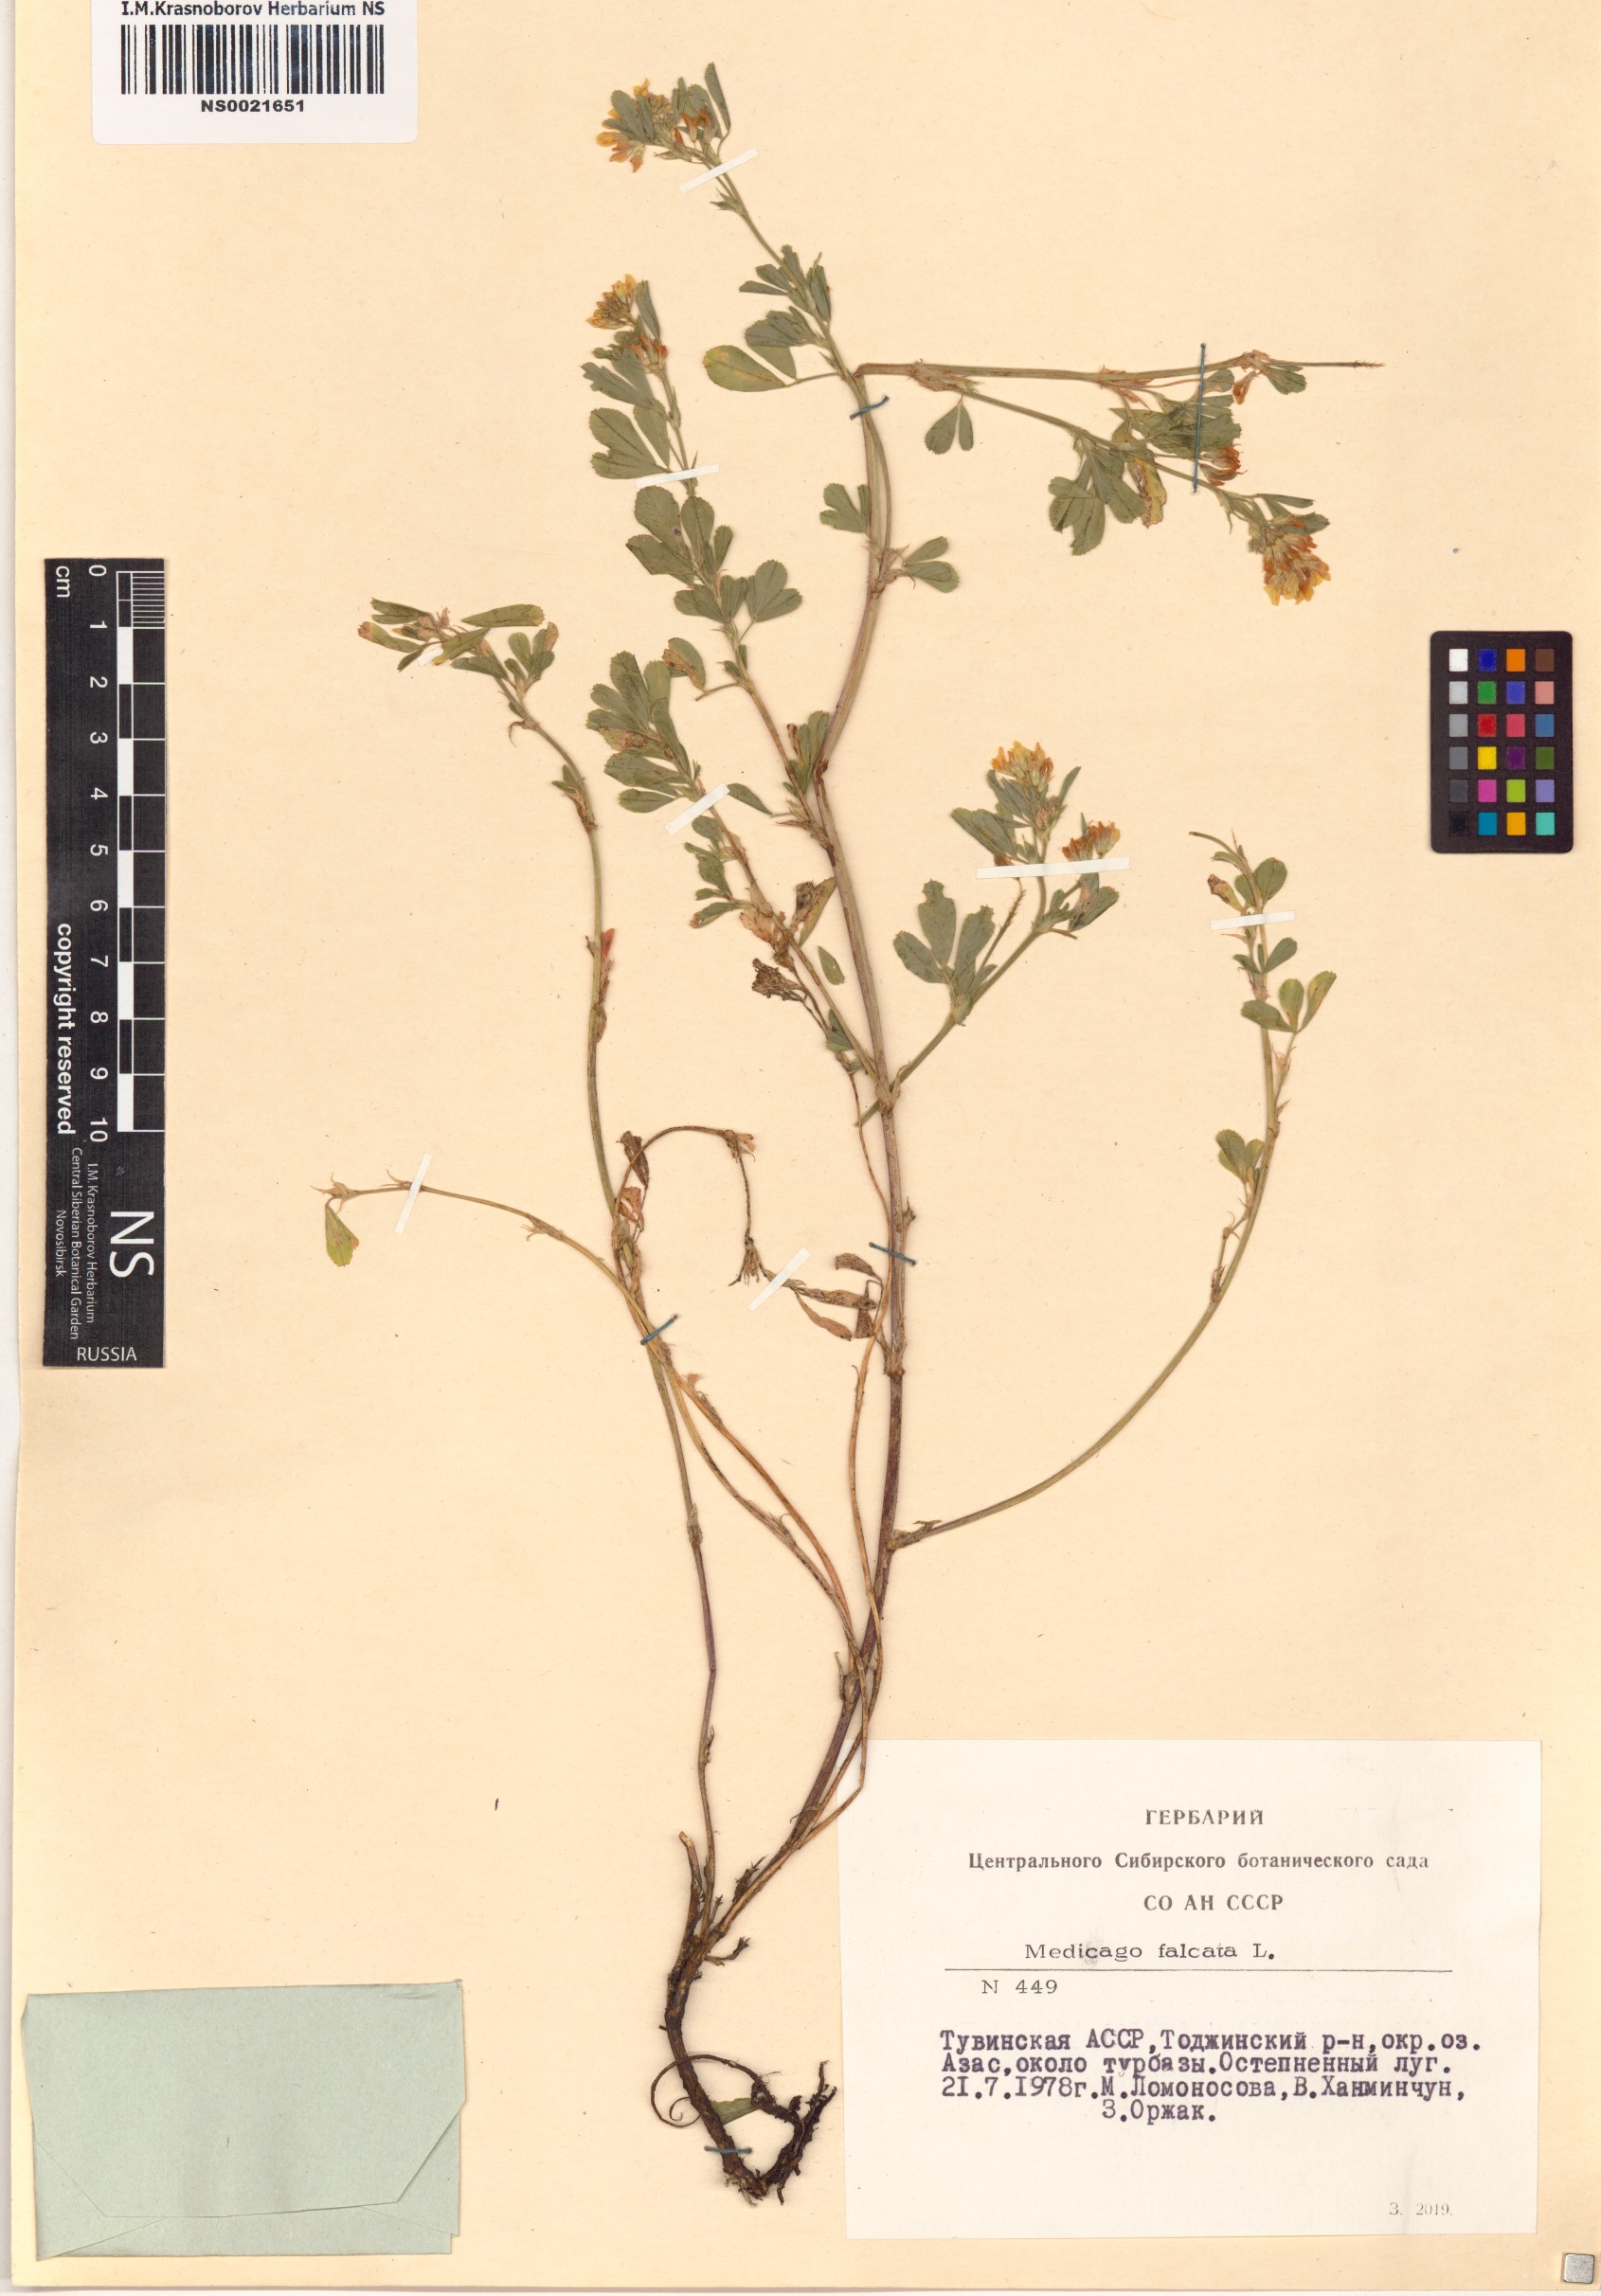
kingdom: Plantae
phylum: Tracheophyta
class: Magnoliopsida
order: Fabales
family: Fabaceae
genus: Medicago
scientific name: Medicago falcata
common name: Sickle medick
